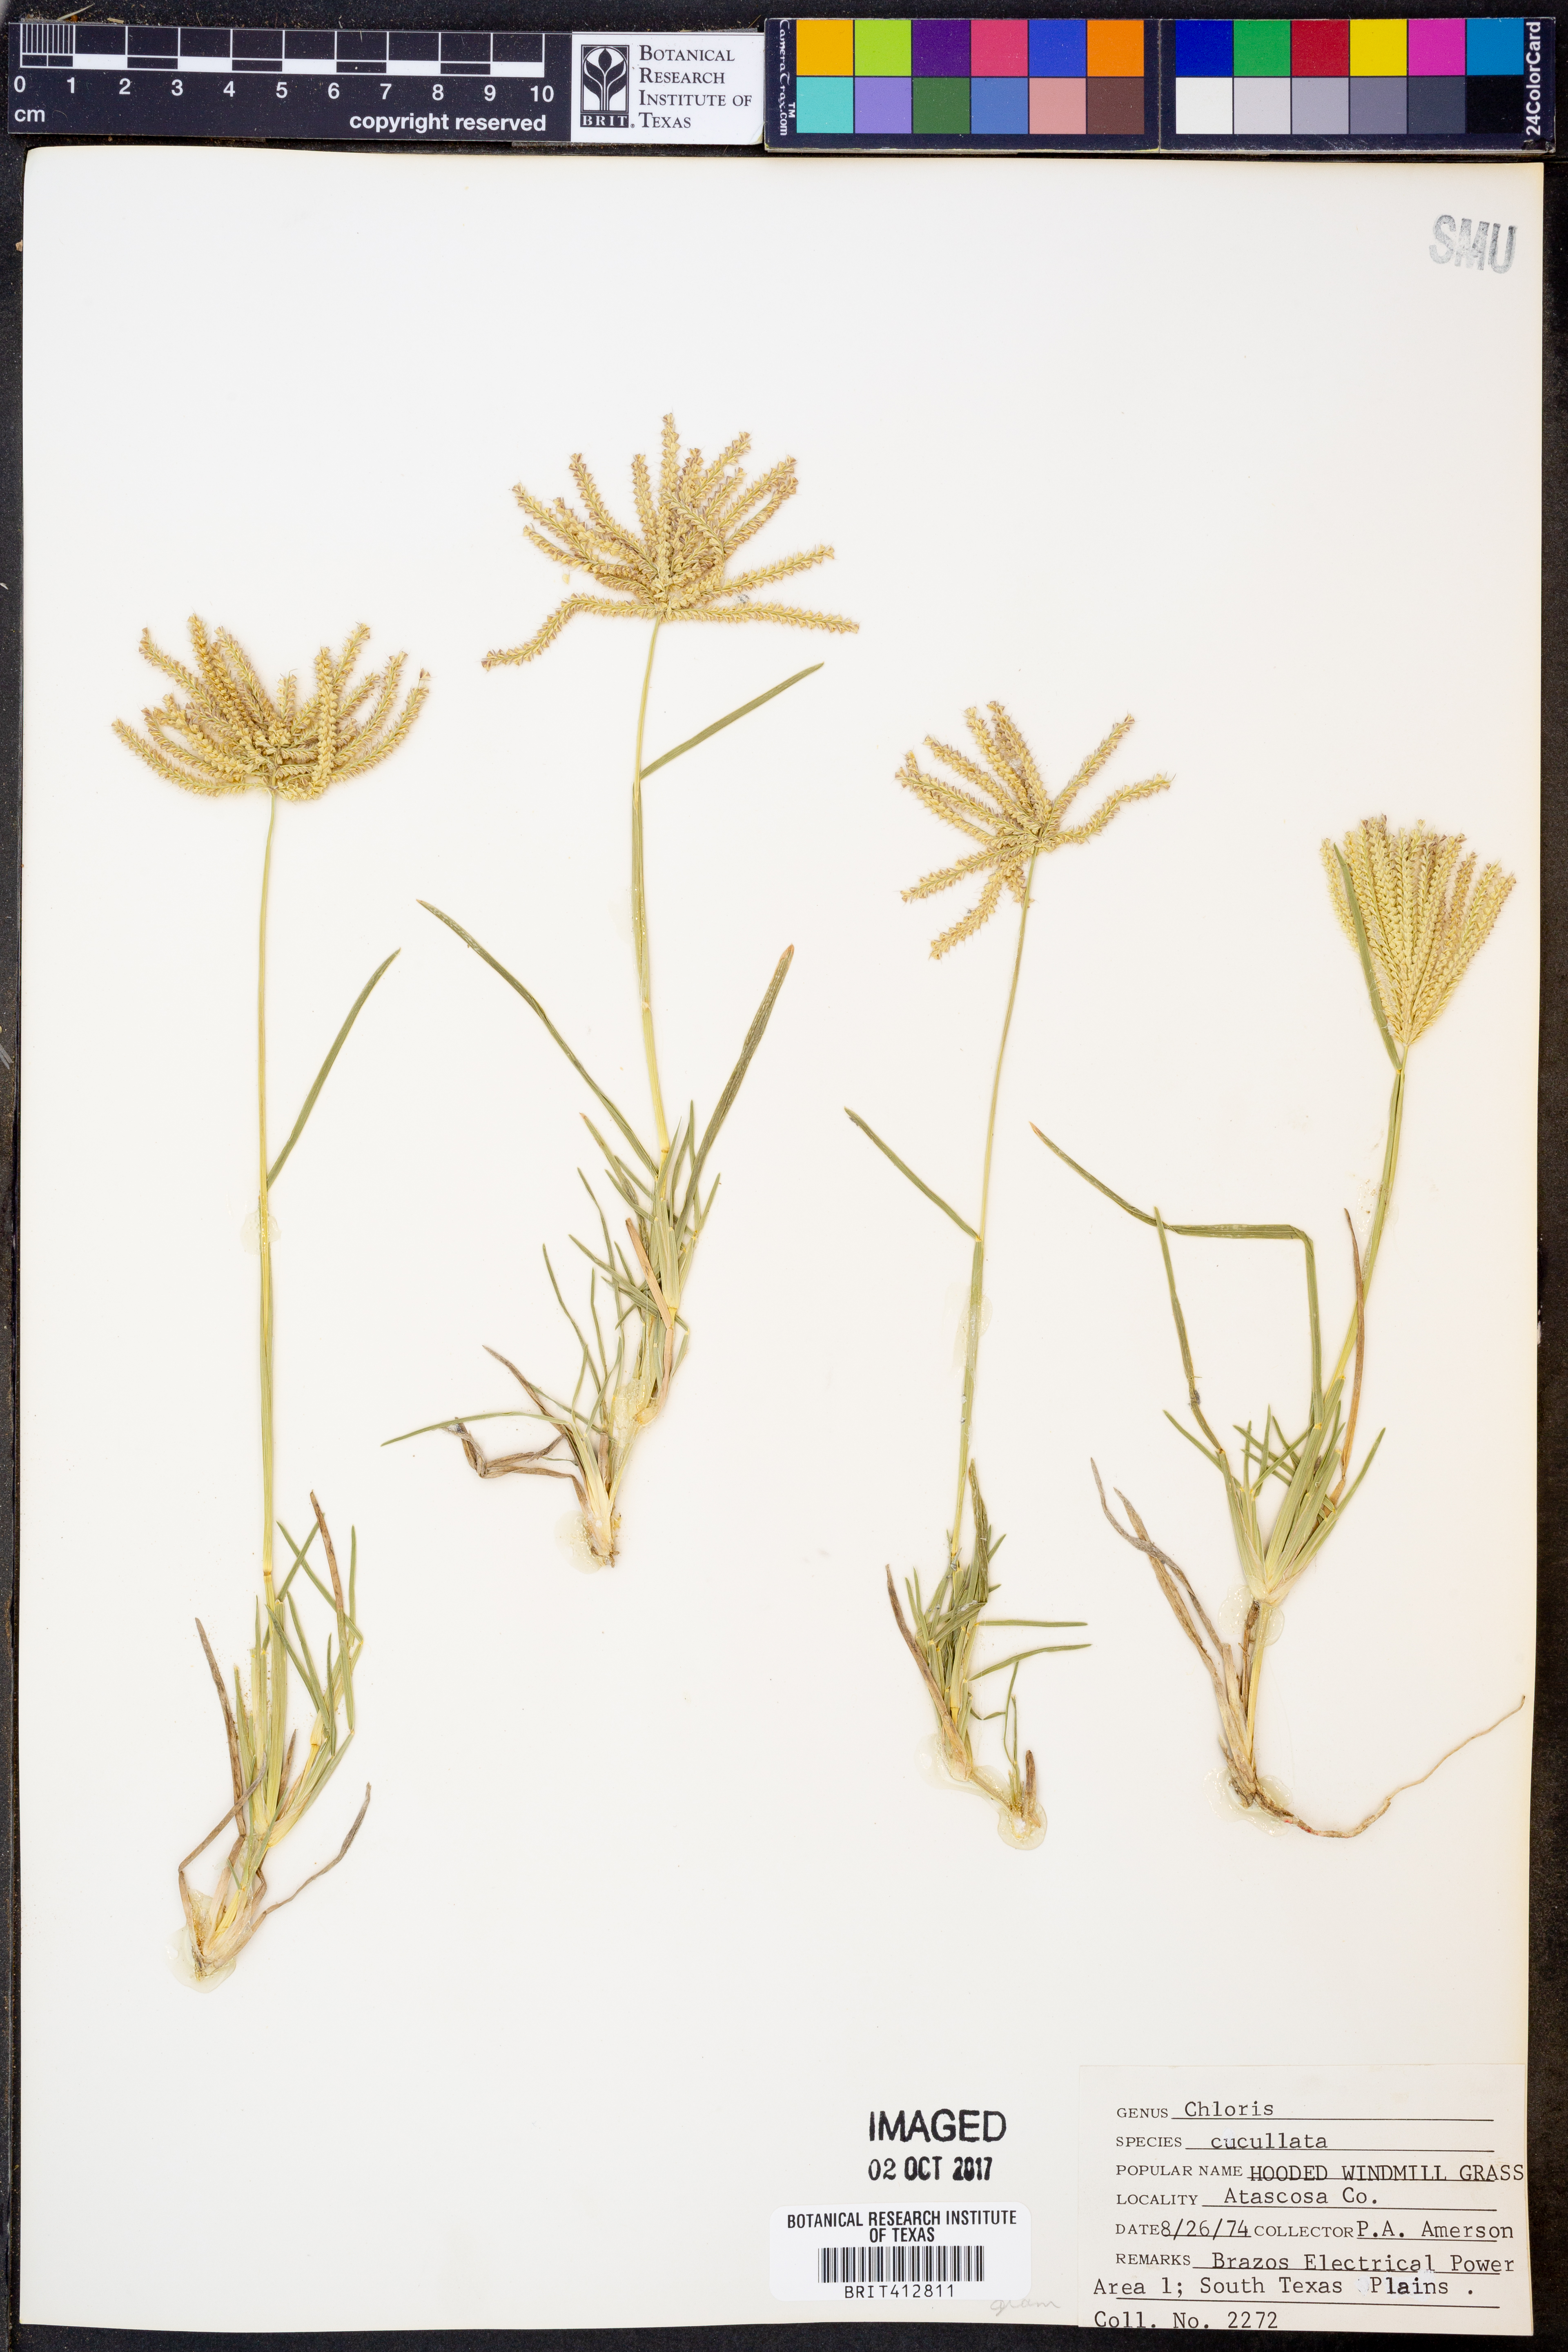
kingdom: Plantae
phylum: Tracheophyta
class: Liliopsida
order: Poales
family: Poaceae
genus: Chloris
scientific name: Chloris cucullata
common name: Hooded windmill grass
